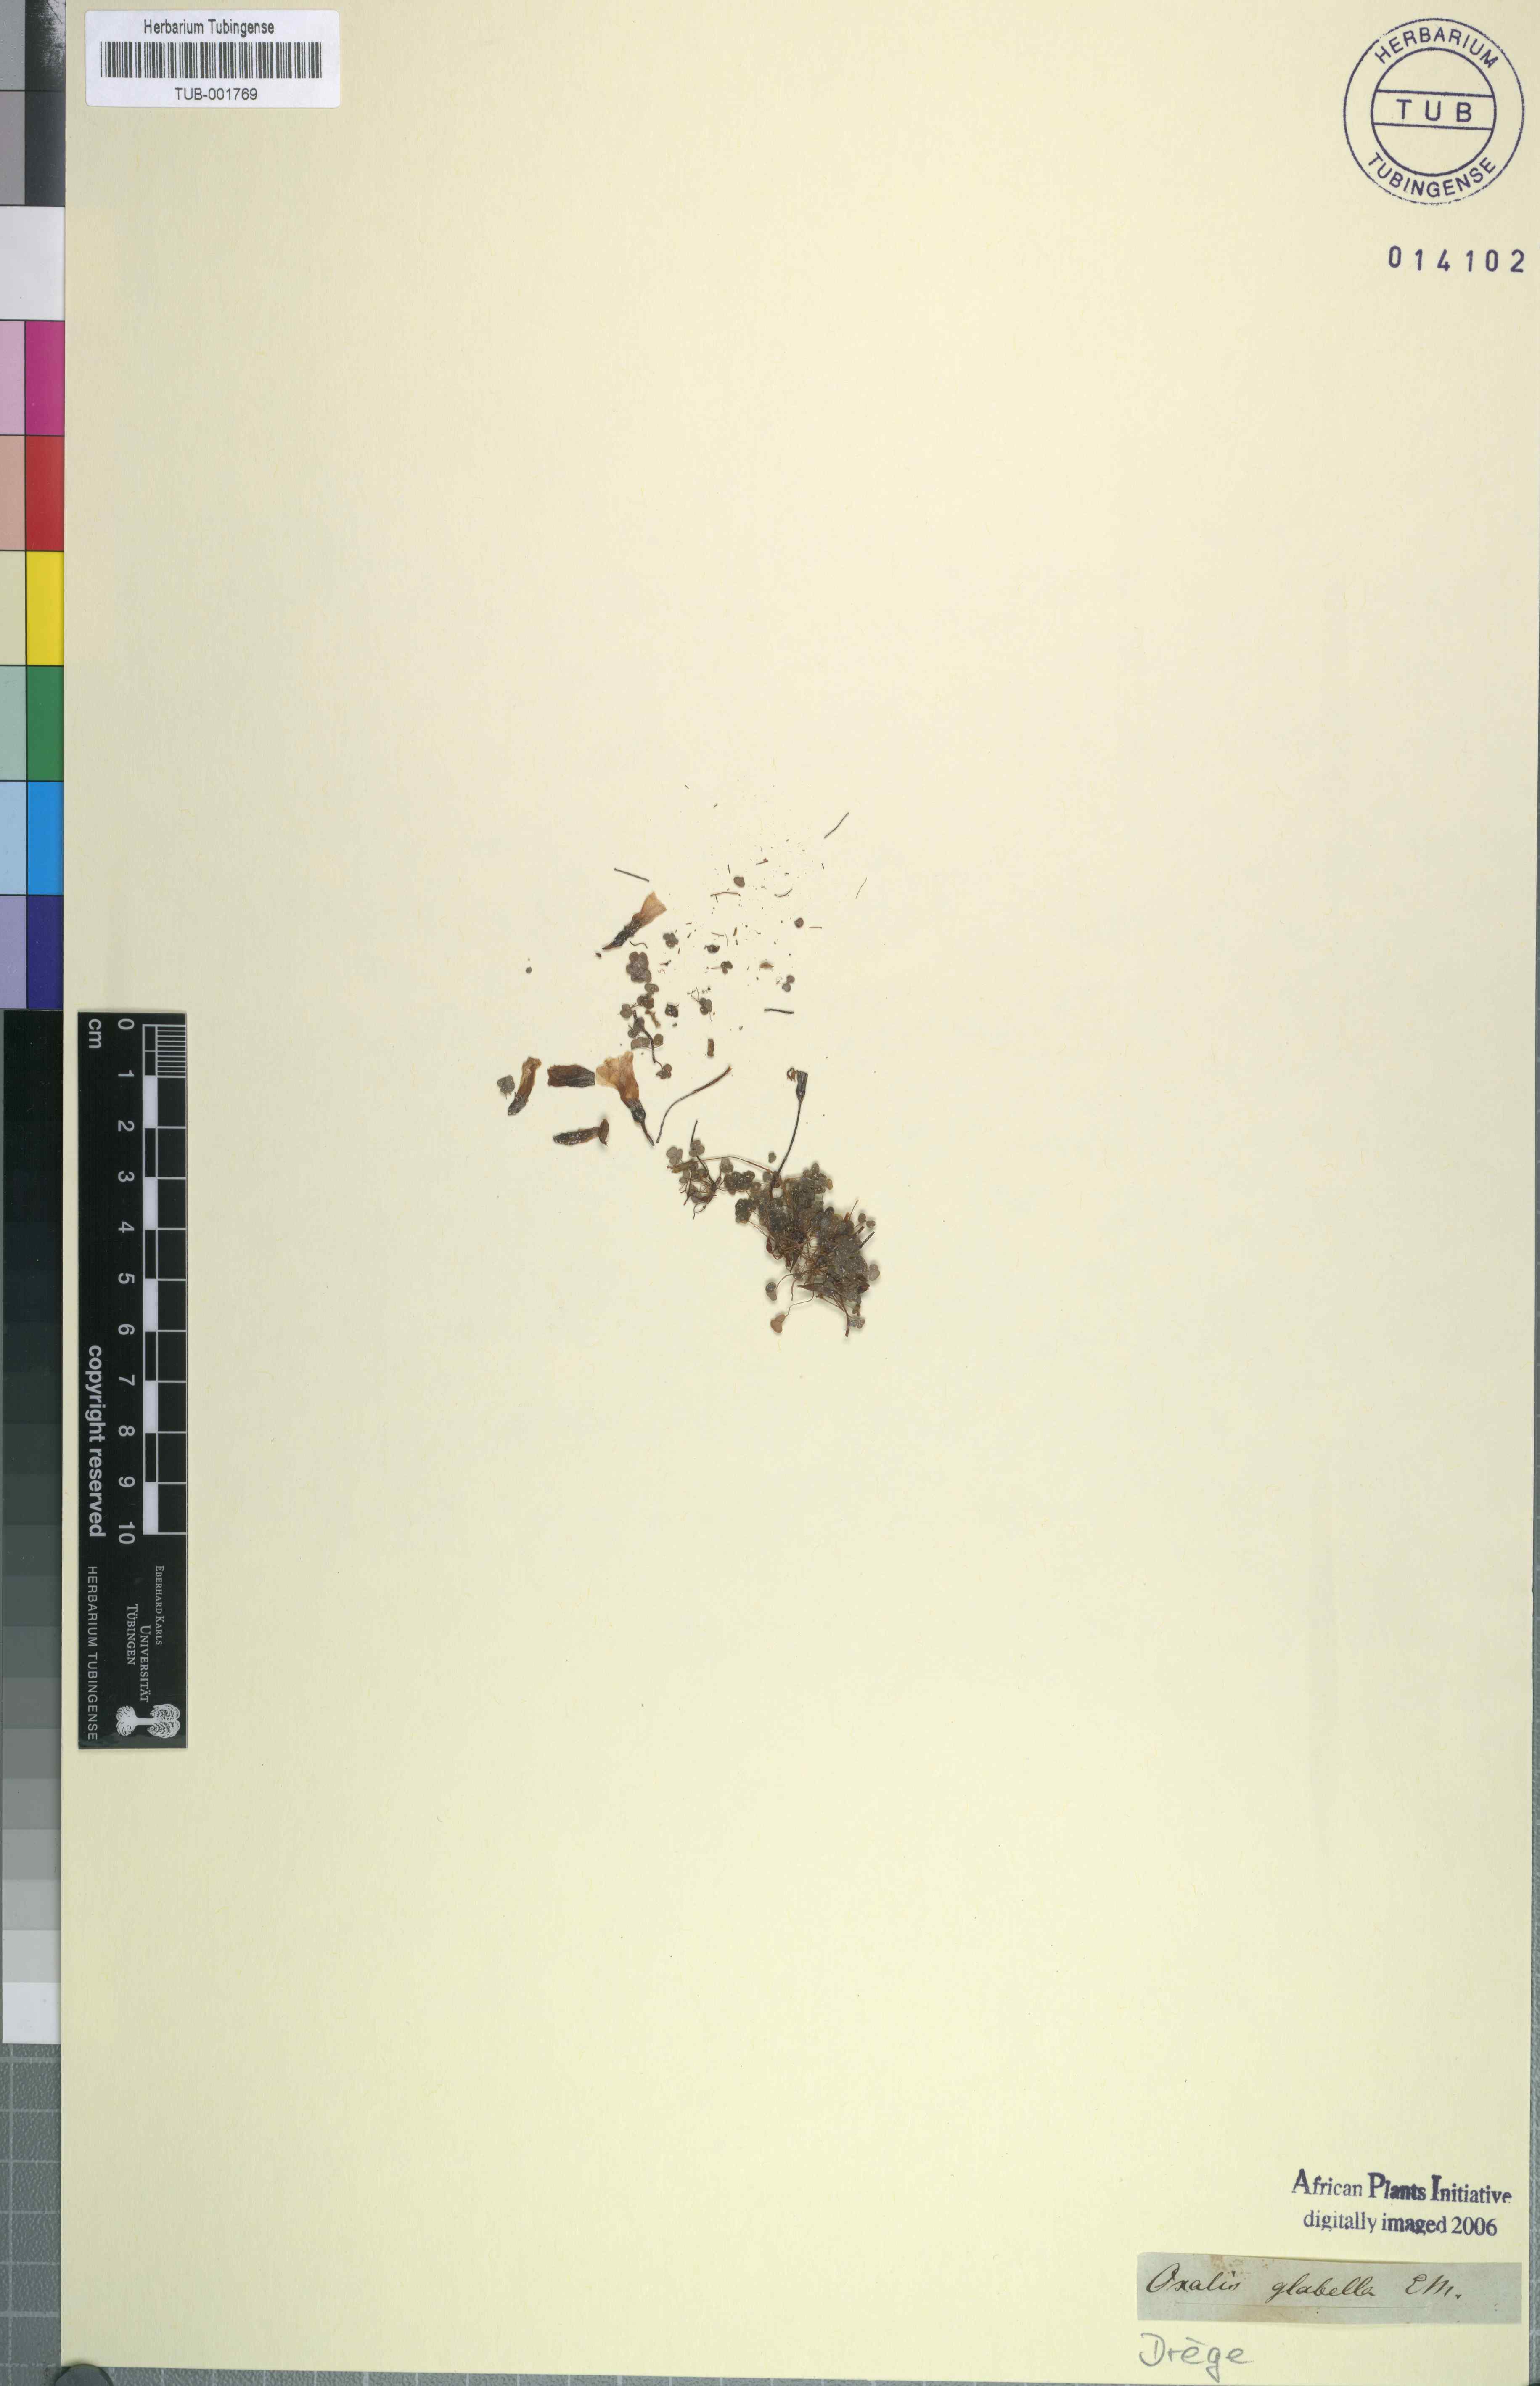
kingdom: Plantae
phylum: Tracheophyta
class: Magnoliopsida
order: Oxalidales
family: Oxalidaceae
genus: Oxalis
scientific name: Oxalis punctata
